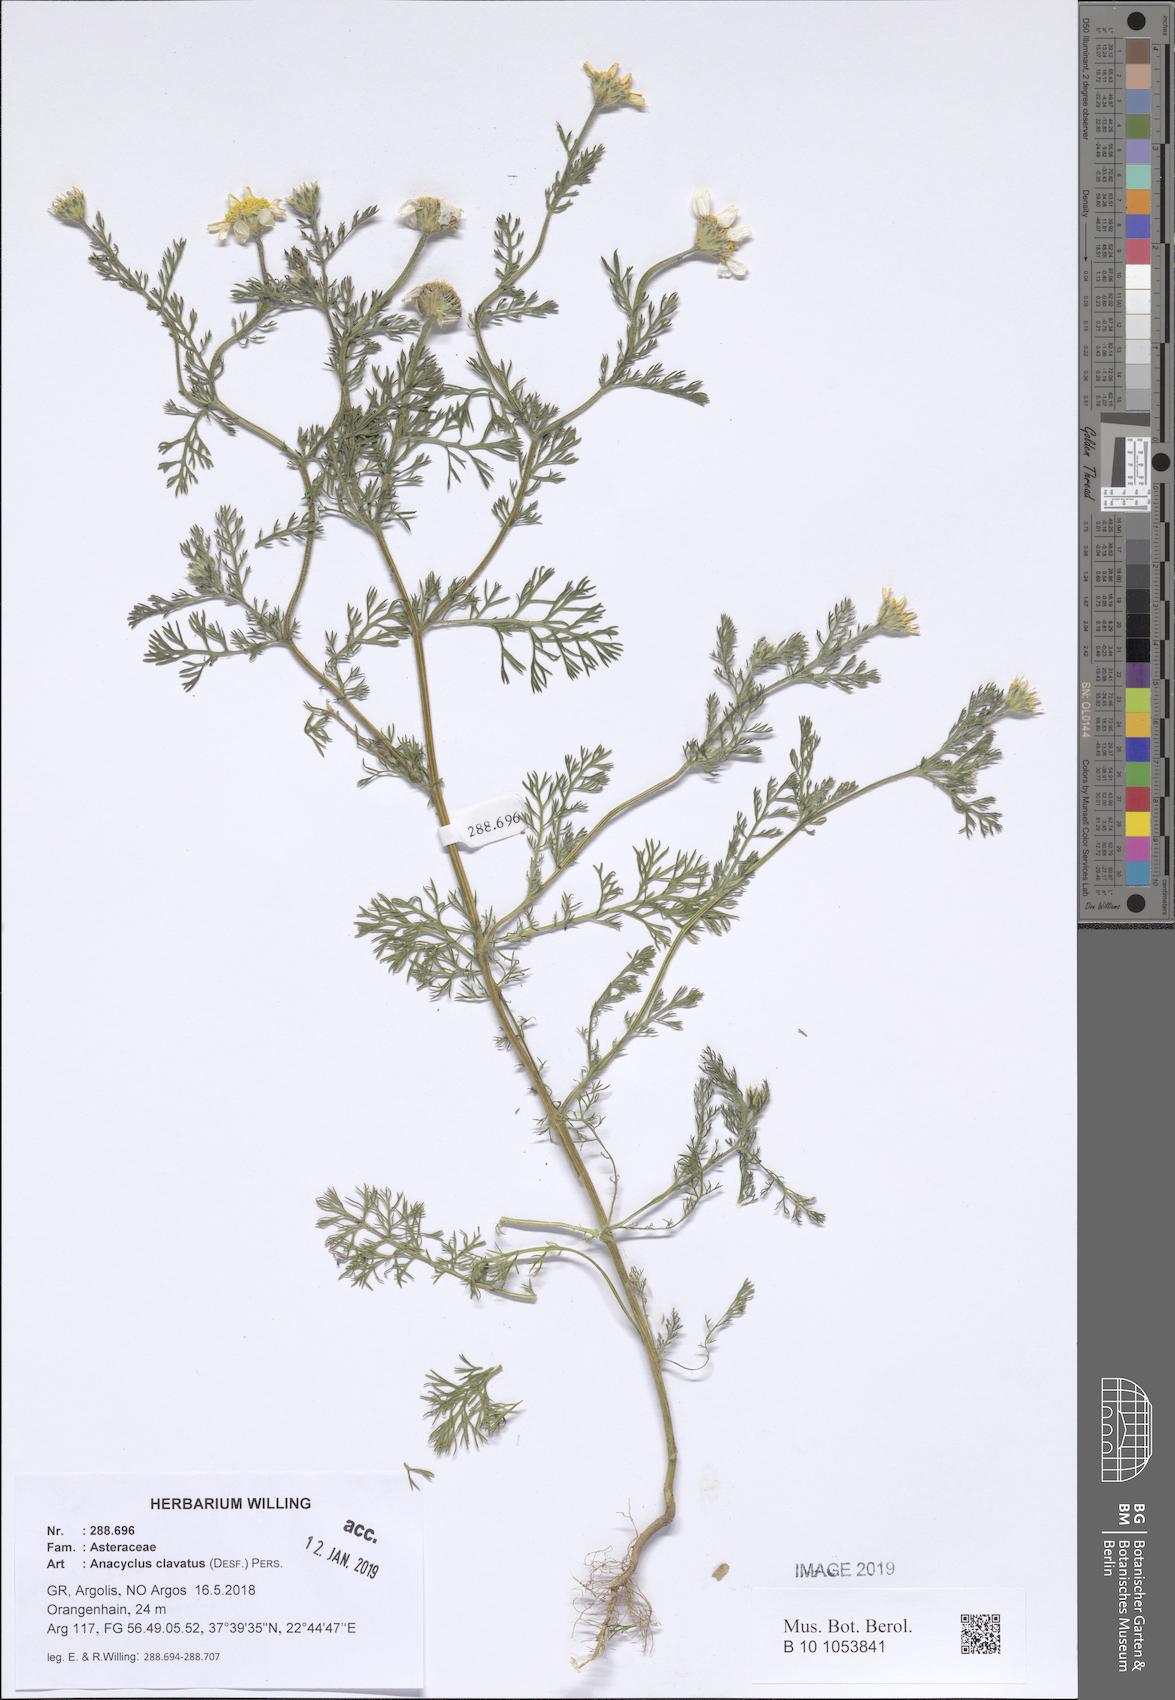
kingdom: Plantae
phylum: Tracheophyta
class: Magnoliopsida
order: Asterales
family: Asteraceae
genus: Anacyclus
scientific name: Anacyclus clavatus
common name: Whitebuttons
